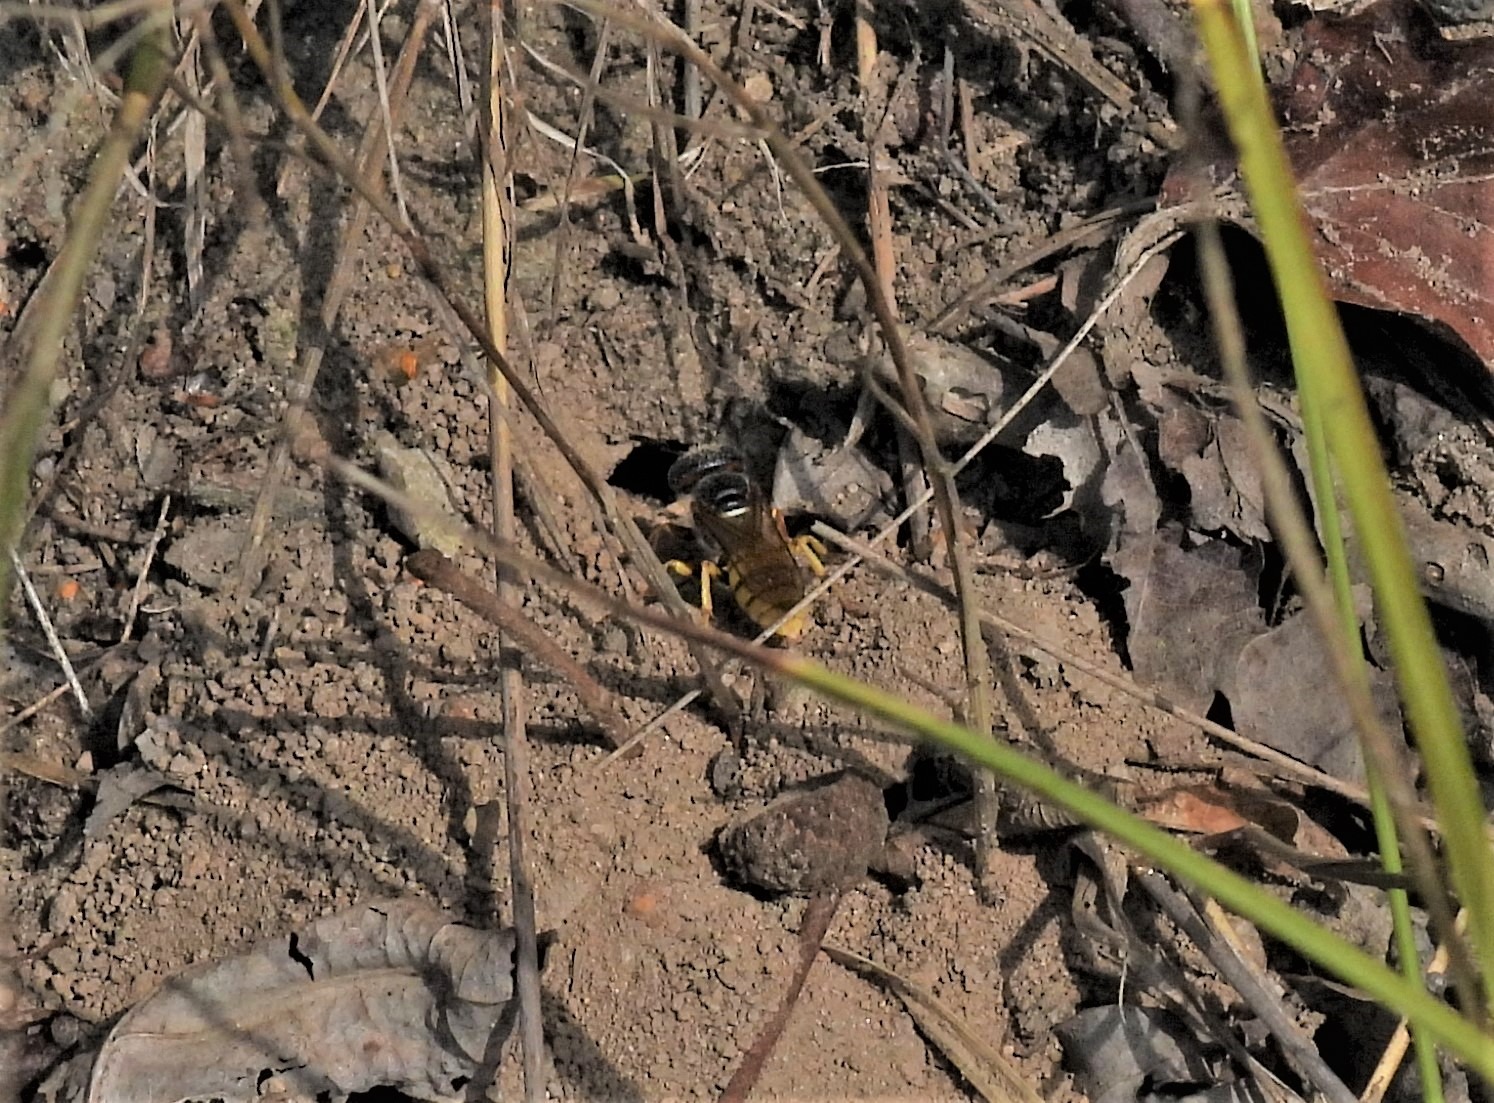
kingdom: Animalia
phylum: Arthropoda
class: Insecta
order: Hymenoptera
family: Crabronidae
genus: Philanthus
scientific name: Philanthus triangulum
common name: Biulv
